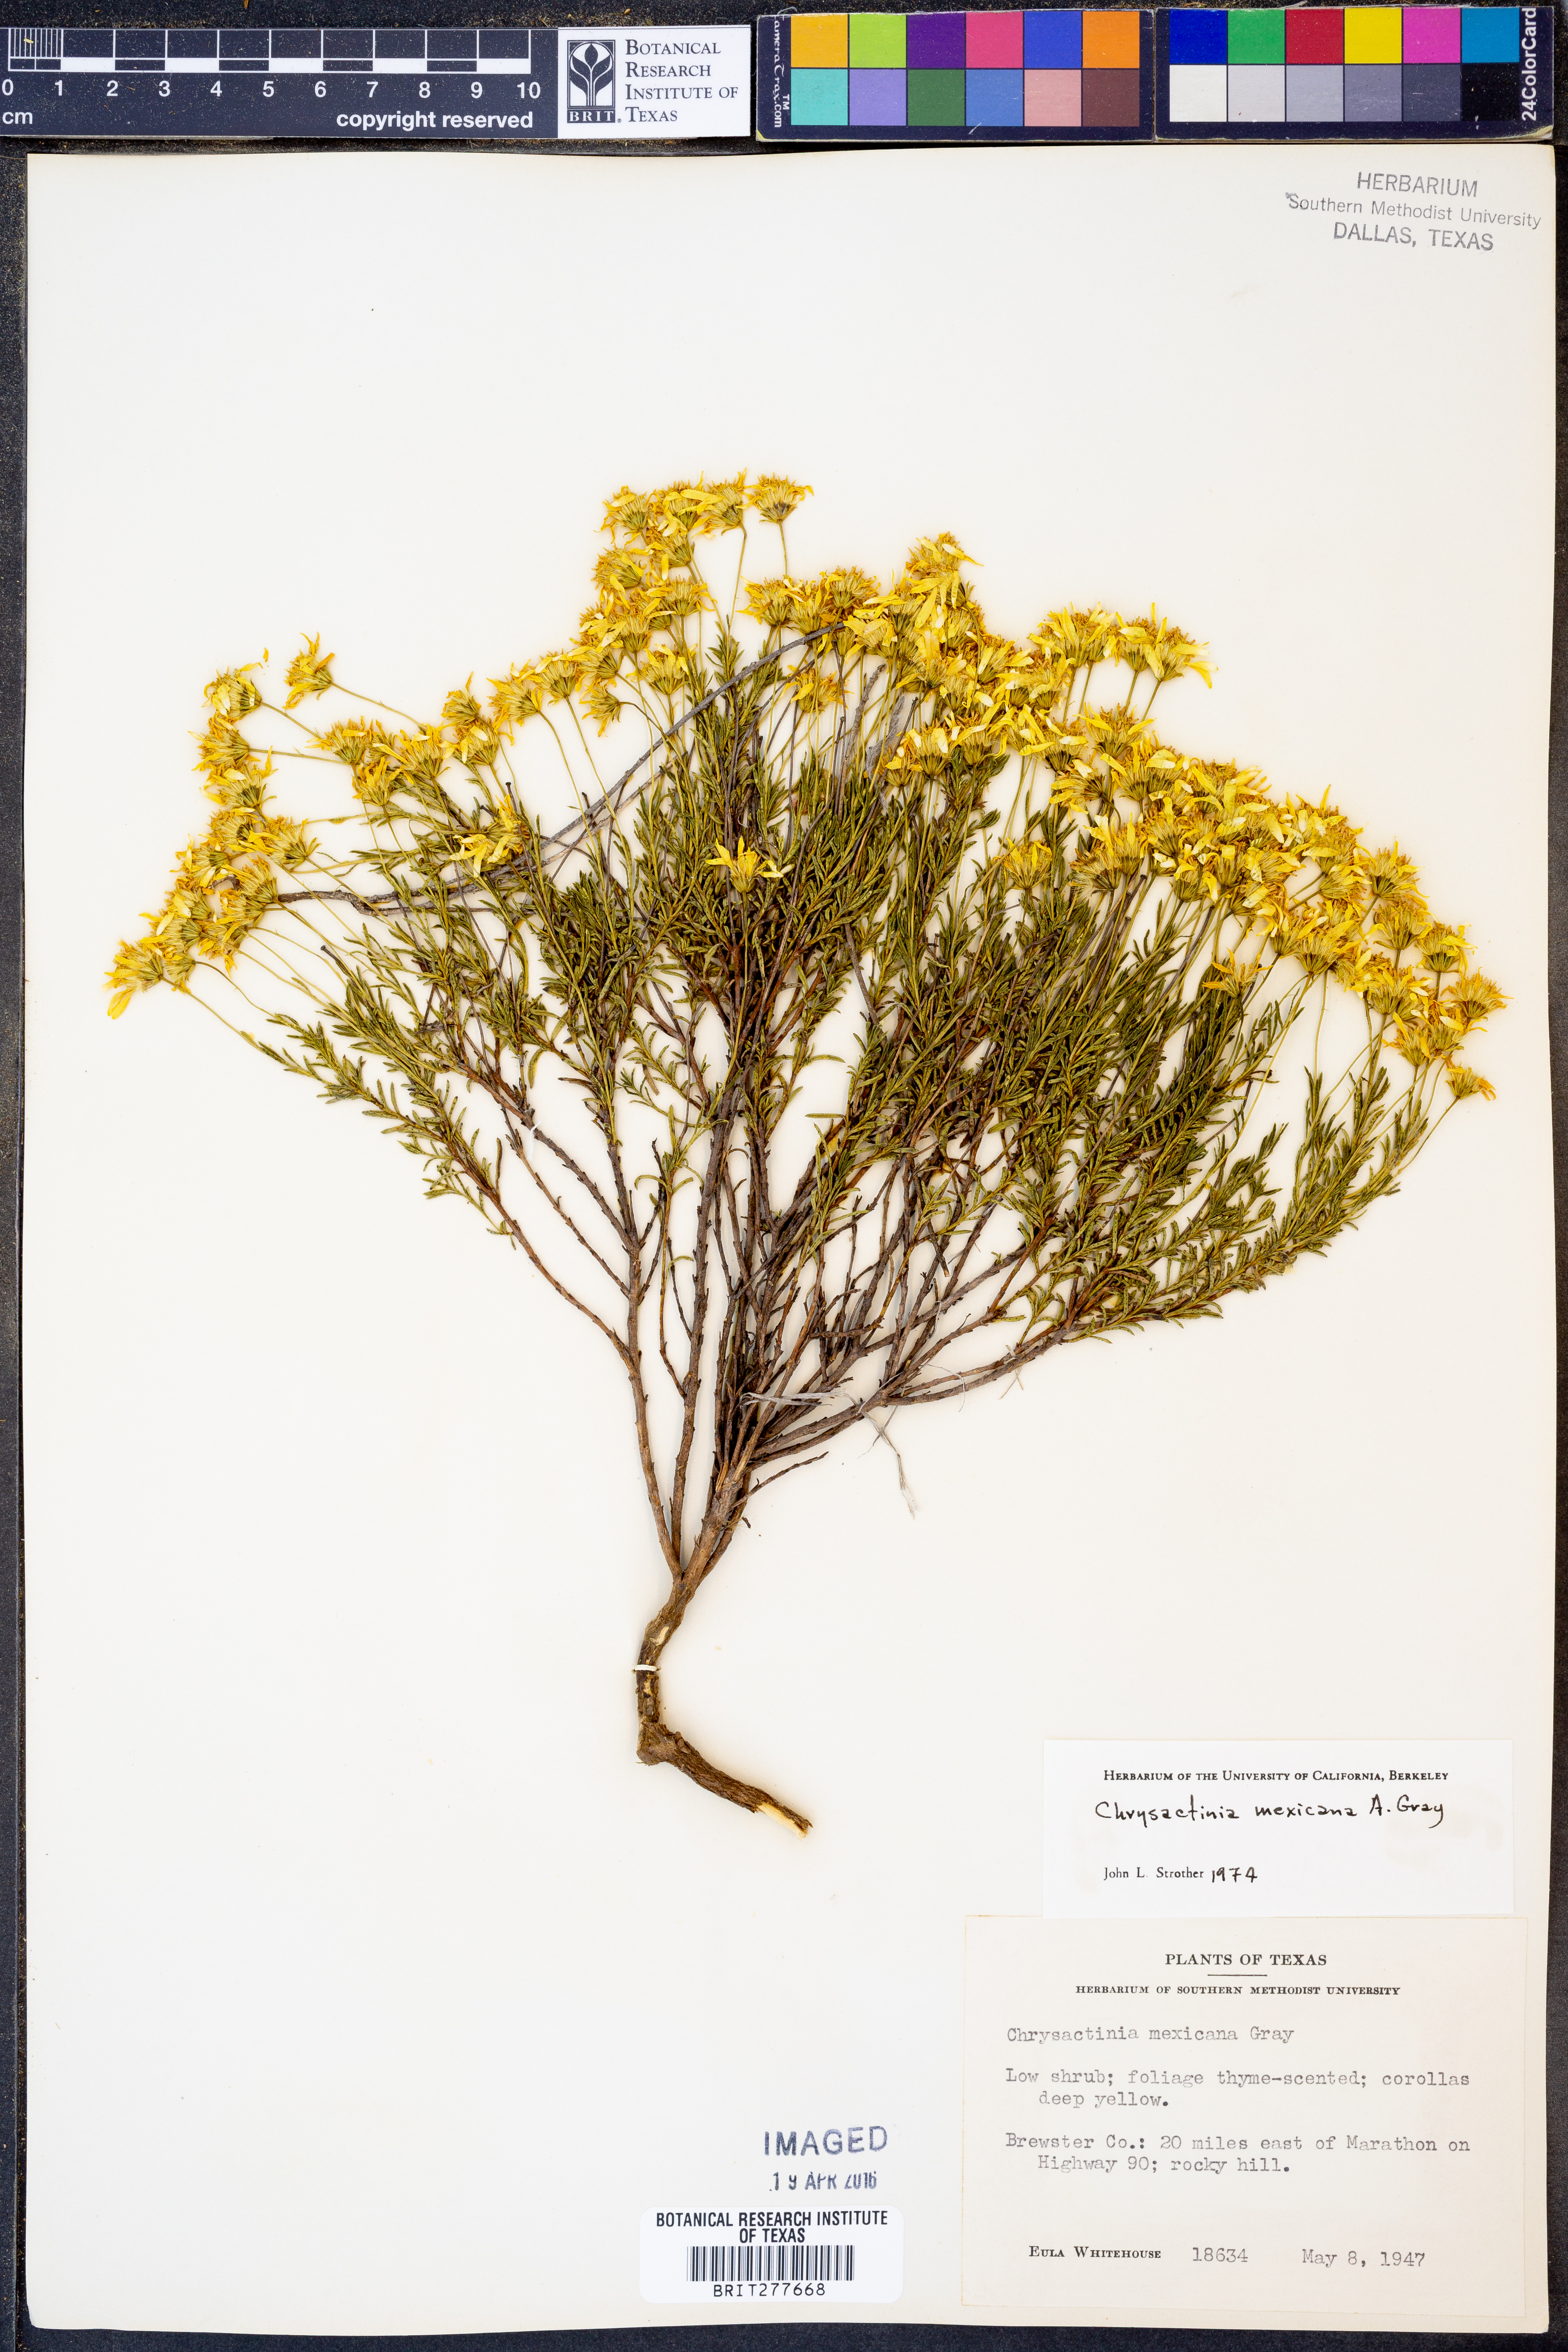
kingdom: Plantae
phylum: Tracheophyta
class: Magnoliopsida
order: Asterales
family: Asteraceae
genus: Chrysactinia
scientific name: Chrysactinia mexicana
